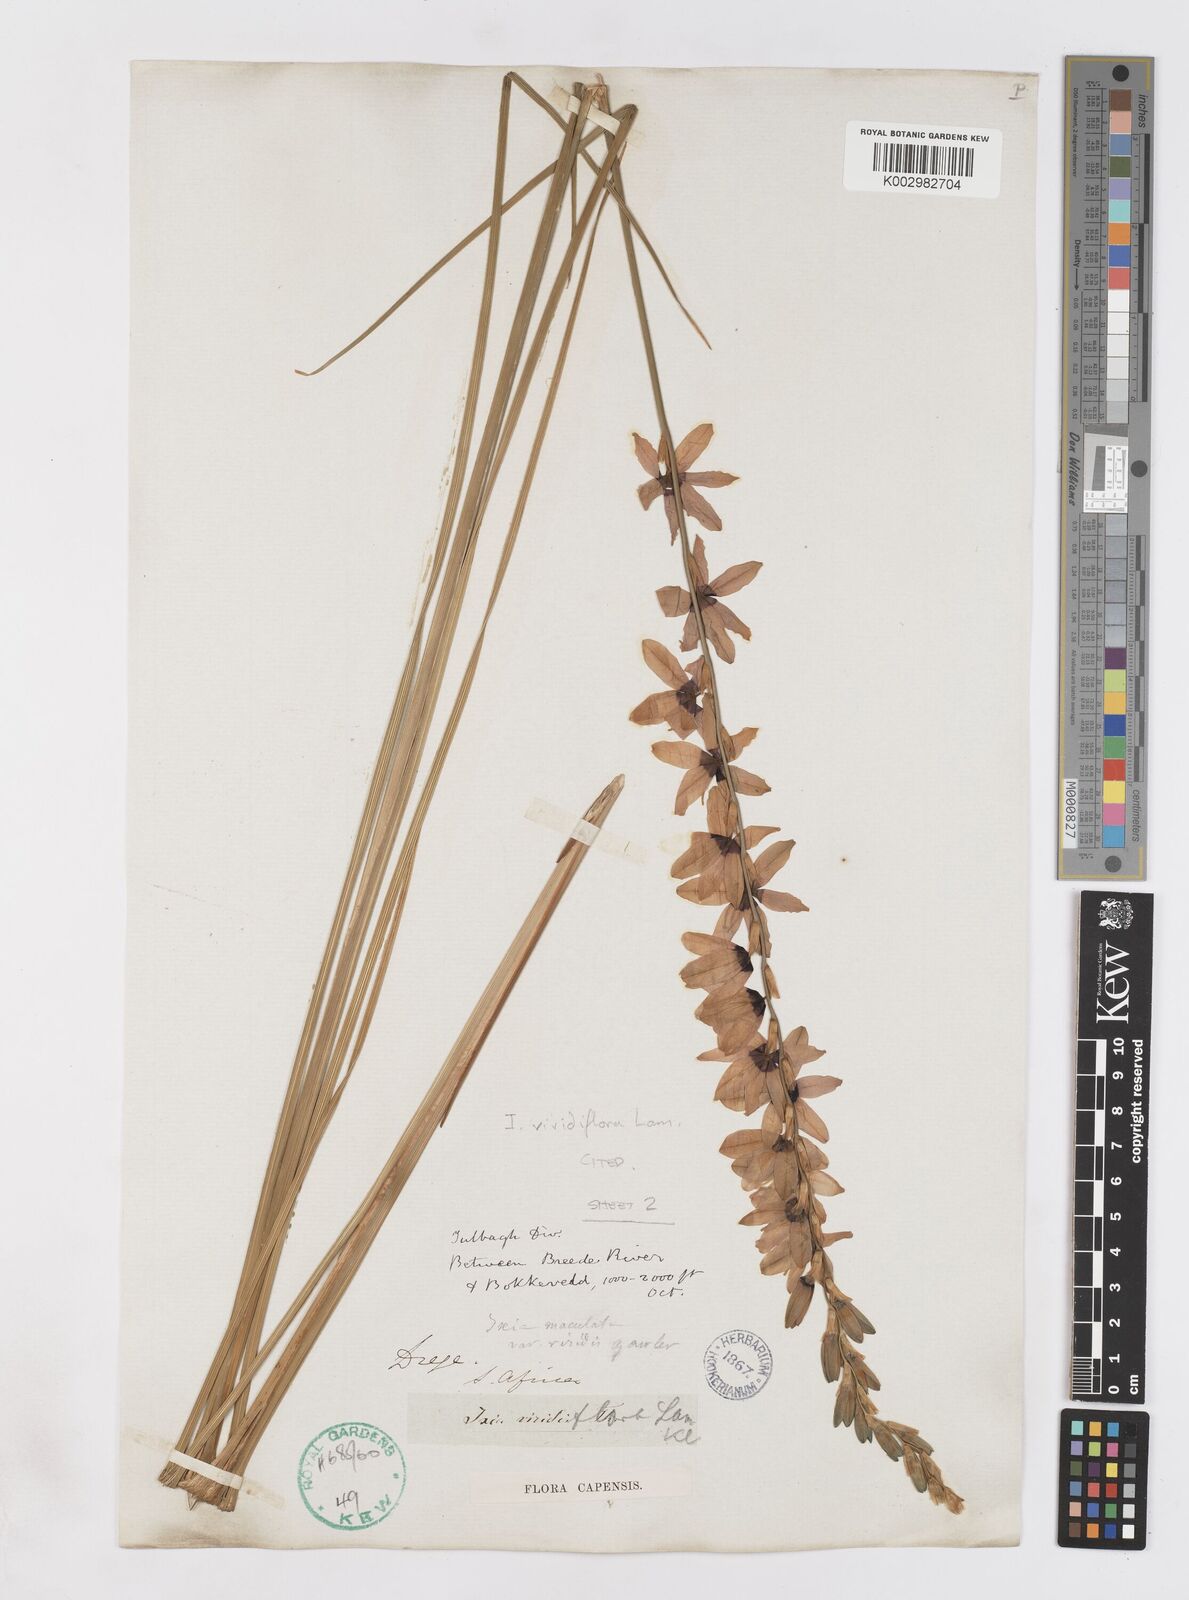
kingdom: Plantae
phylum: Tracheophyta
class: Liliopsida
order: Asparagales
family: Iridaceae
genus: Ixia
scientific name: Ixia viridiflora
